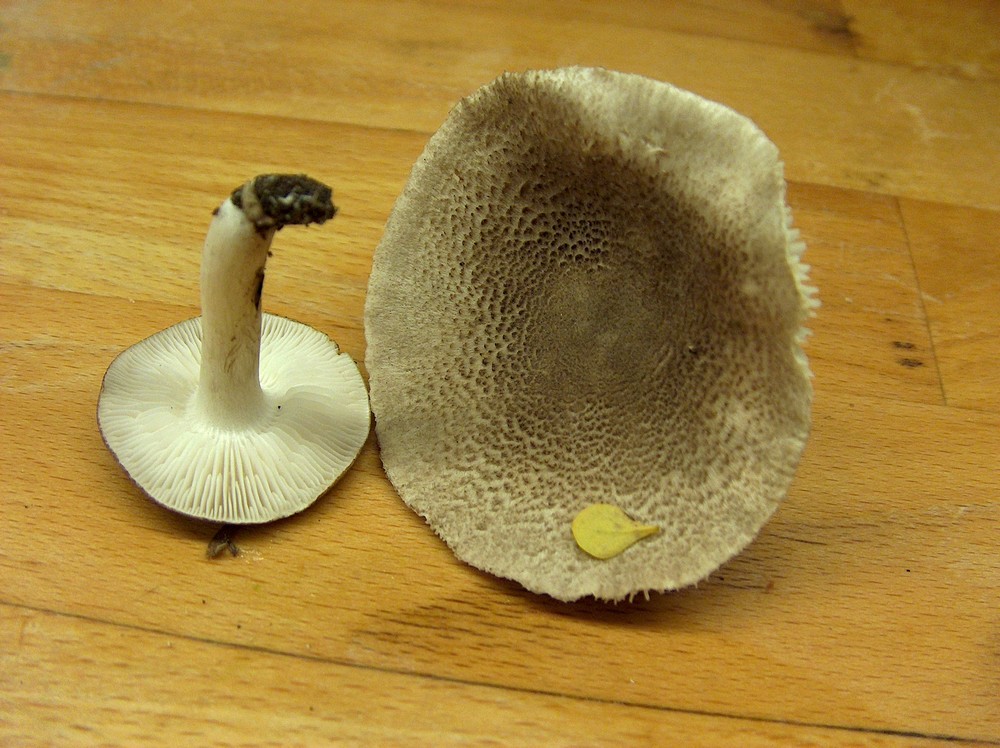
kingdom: Fungi
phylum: Basidiomycota
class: Agaricomycetes
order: Agaricales
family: Tricholomataceae
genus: Tricholoma
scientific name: Tricholoma scalpturatum
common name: gulplettet ridderhat
